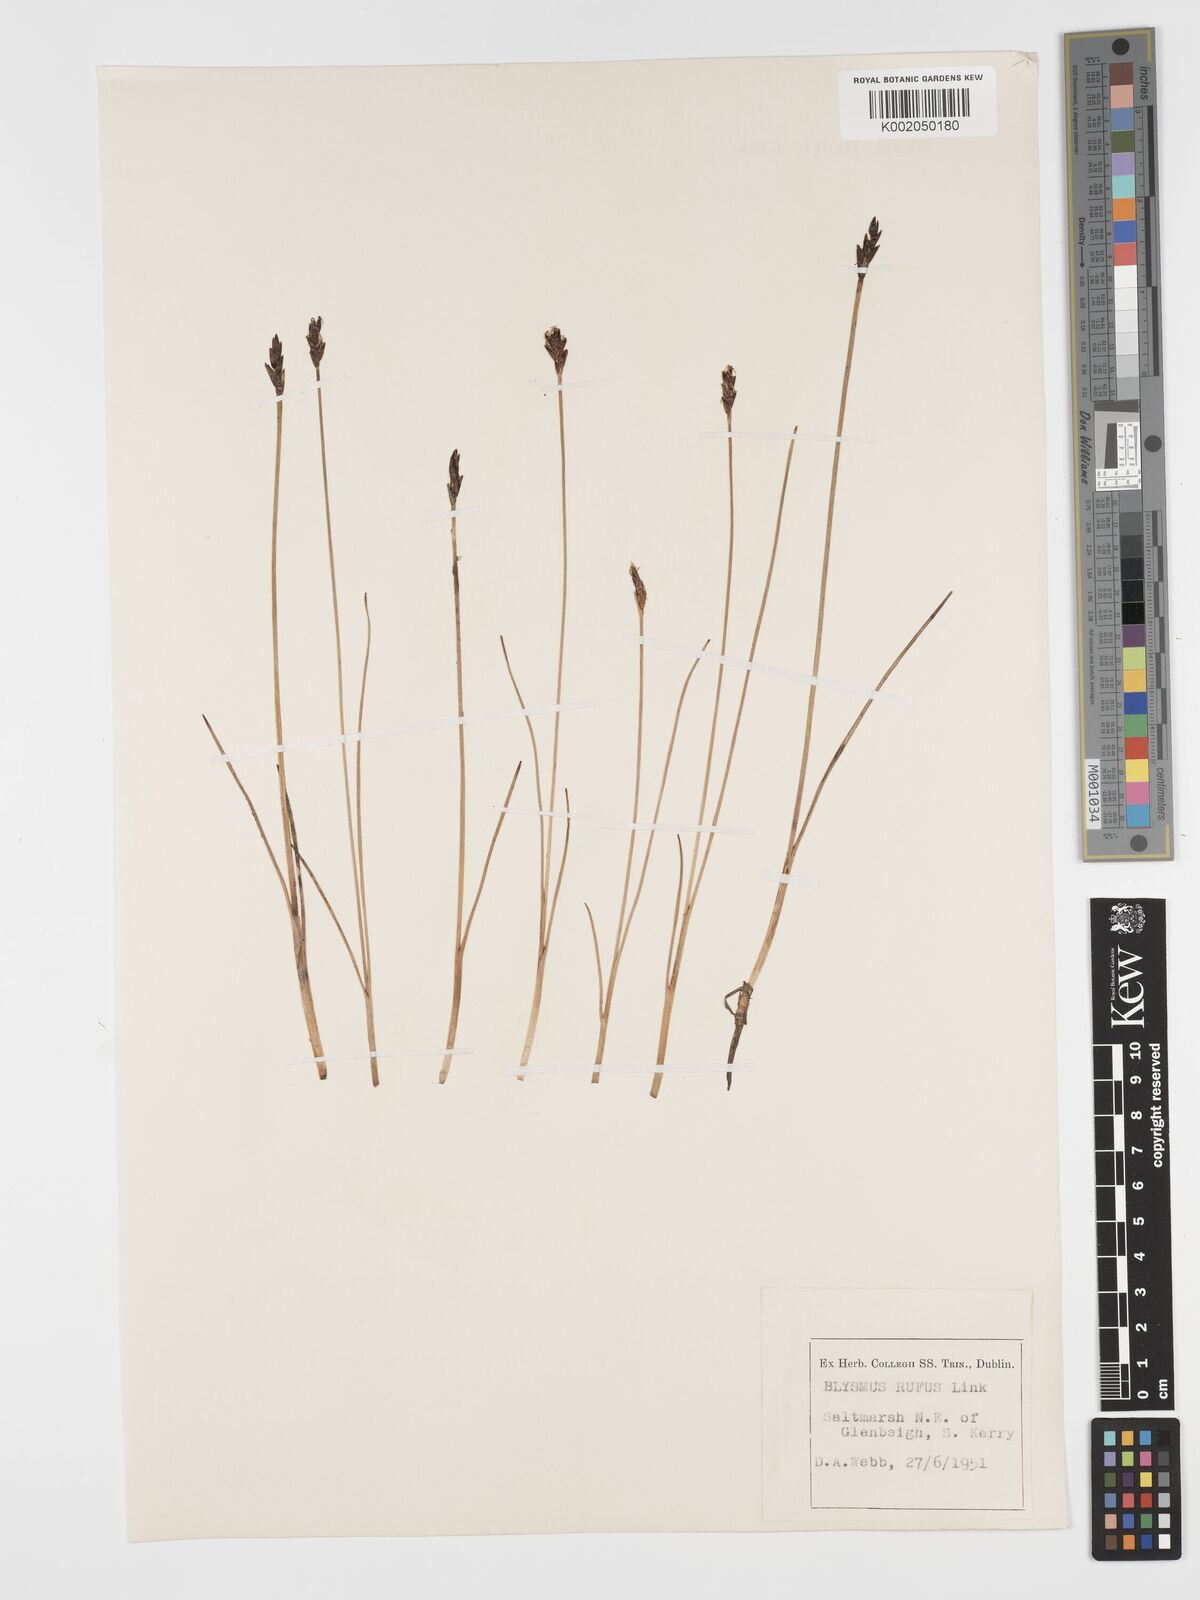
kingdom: Plantae
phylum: Tracheophyta
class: Liliopsida
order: Poales
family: Cyperaceae
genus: Blysmus
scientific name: Blysmus rufus
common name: Saltmarsh flat-sedge
